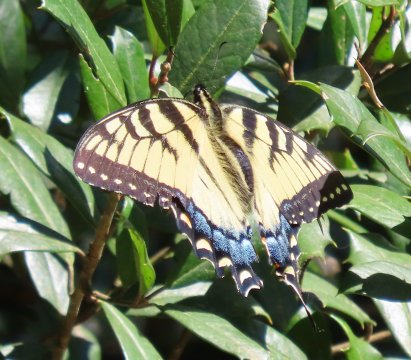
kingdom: Animalia
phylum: Arthropoda
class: Insecta
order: Lepidoptera
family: Papilionidae
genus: Pterourus
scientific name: Pterourus glaucus
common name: Eastern Tiger Swallowtail
